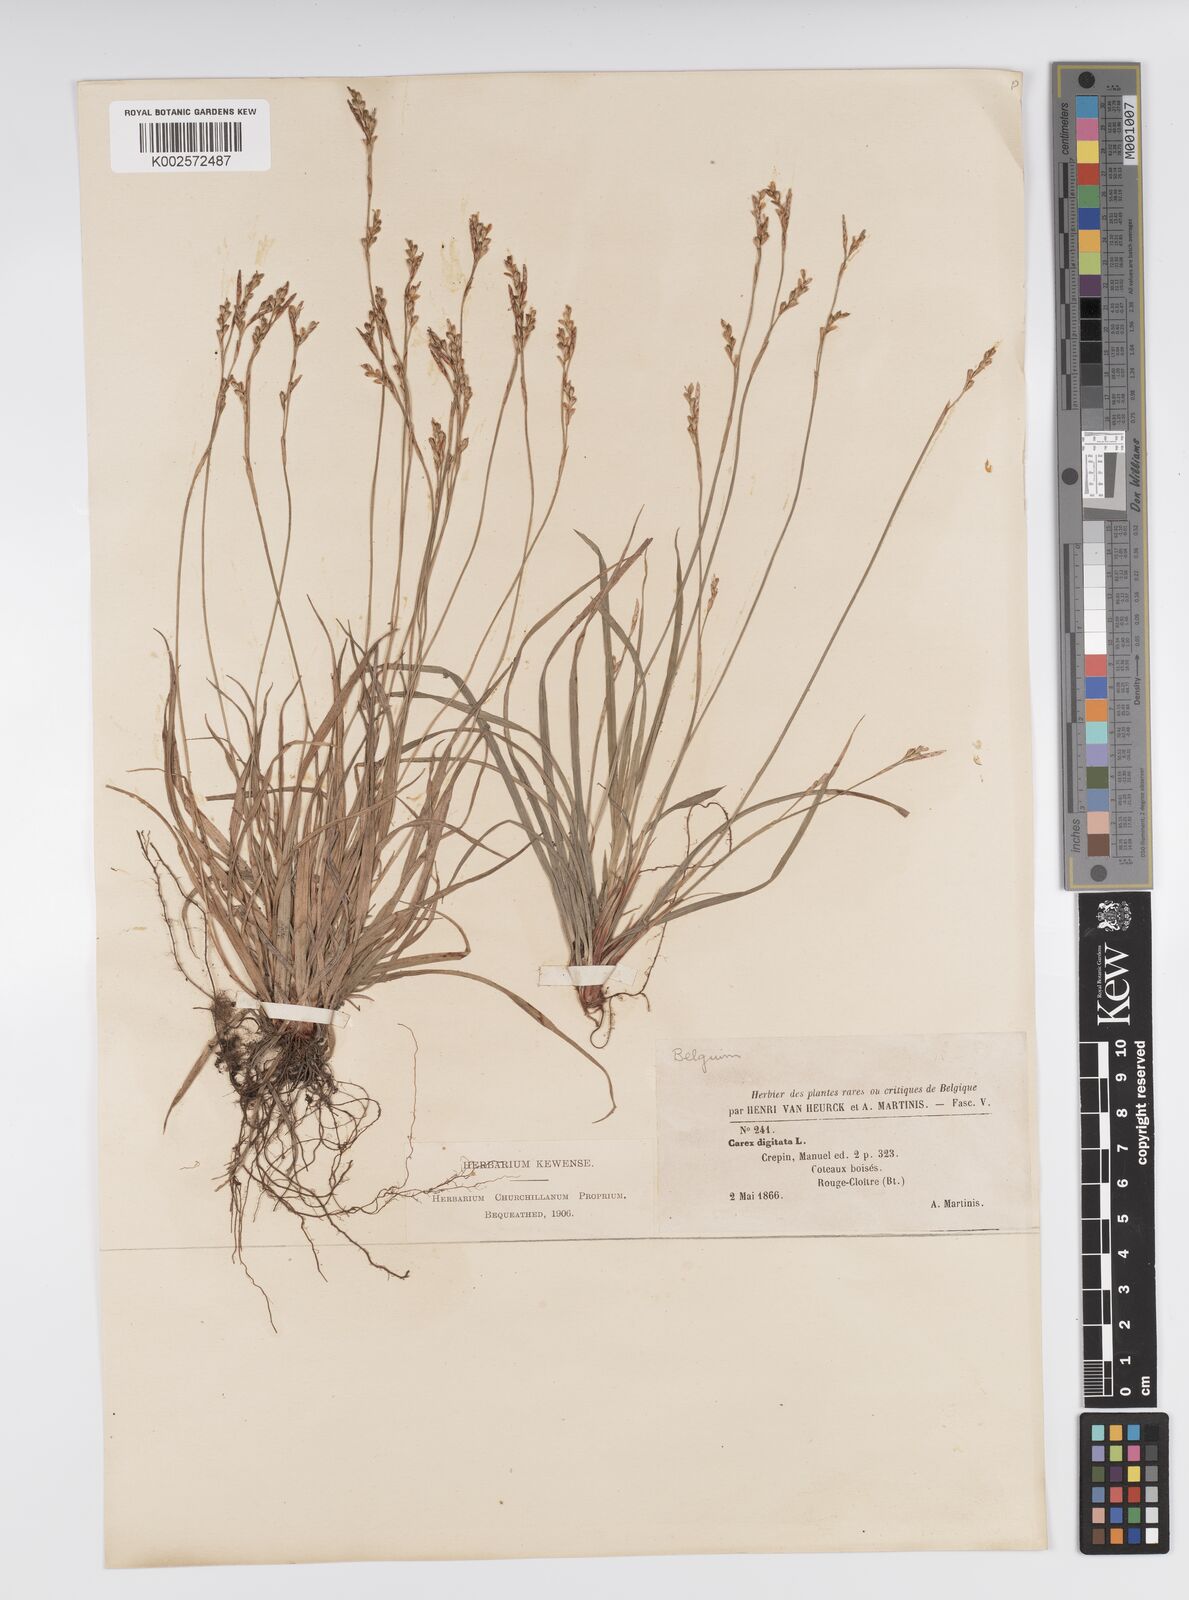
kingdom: Plantae
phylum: Tracheophyta
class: Liliopsida
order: Poales
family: Cyperaceae
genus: Carex
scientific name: Carex digitata
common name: Fingered sedge
